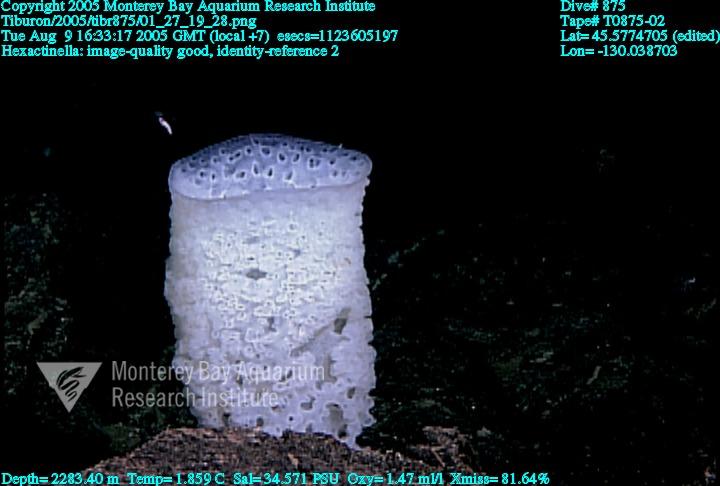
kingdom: Animalia
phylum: Porifera
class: Hexactinellida
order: Sceptrulophora
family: Tretodictyidae
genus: Hexactinella
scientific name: Hexactinella
